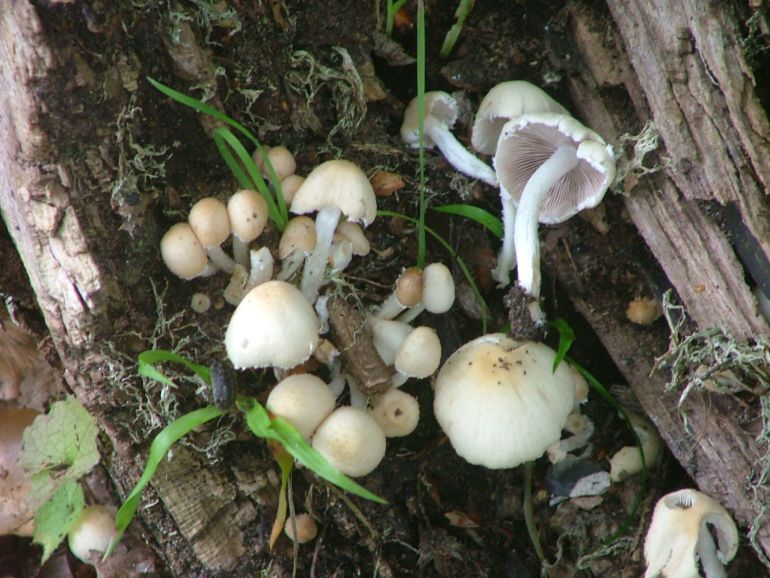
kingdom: Fungi
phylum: Basidiomycota
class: Agaricomycetes
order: Agaricales
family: Psathyrellaceae
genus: Candolleomyces
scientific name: Candolleomyces candolleanus
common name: Candolles mørkhat
